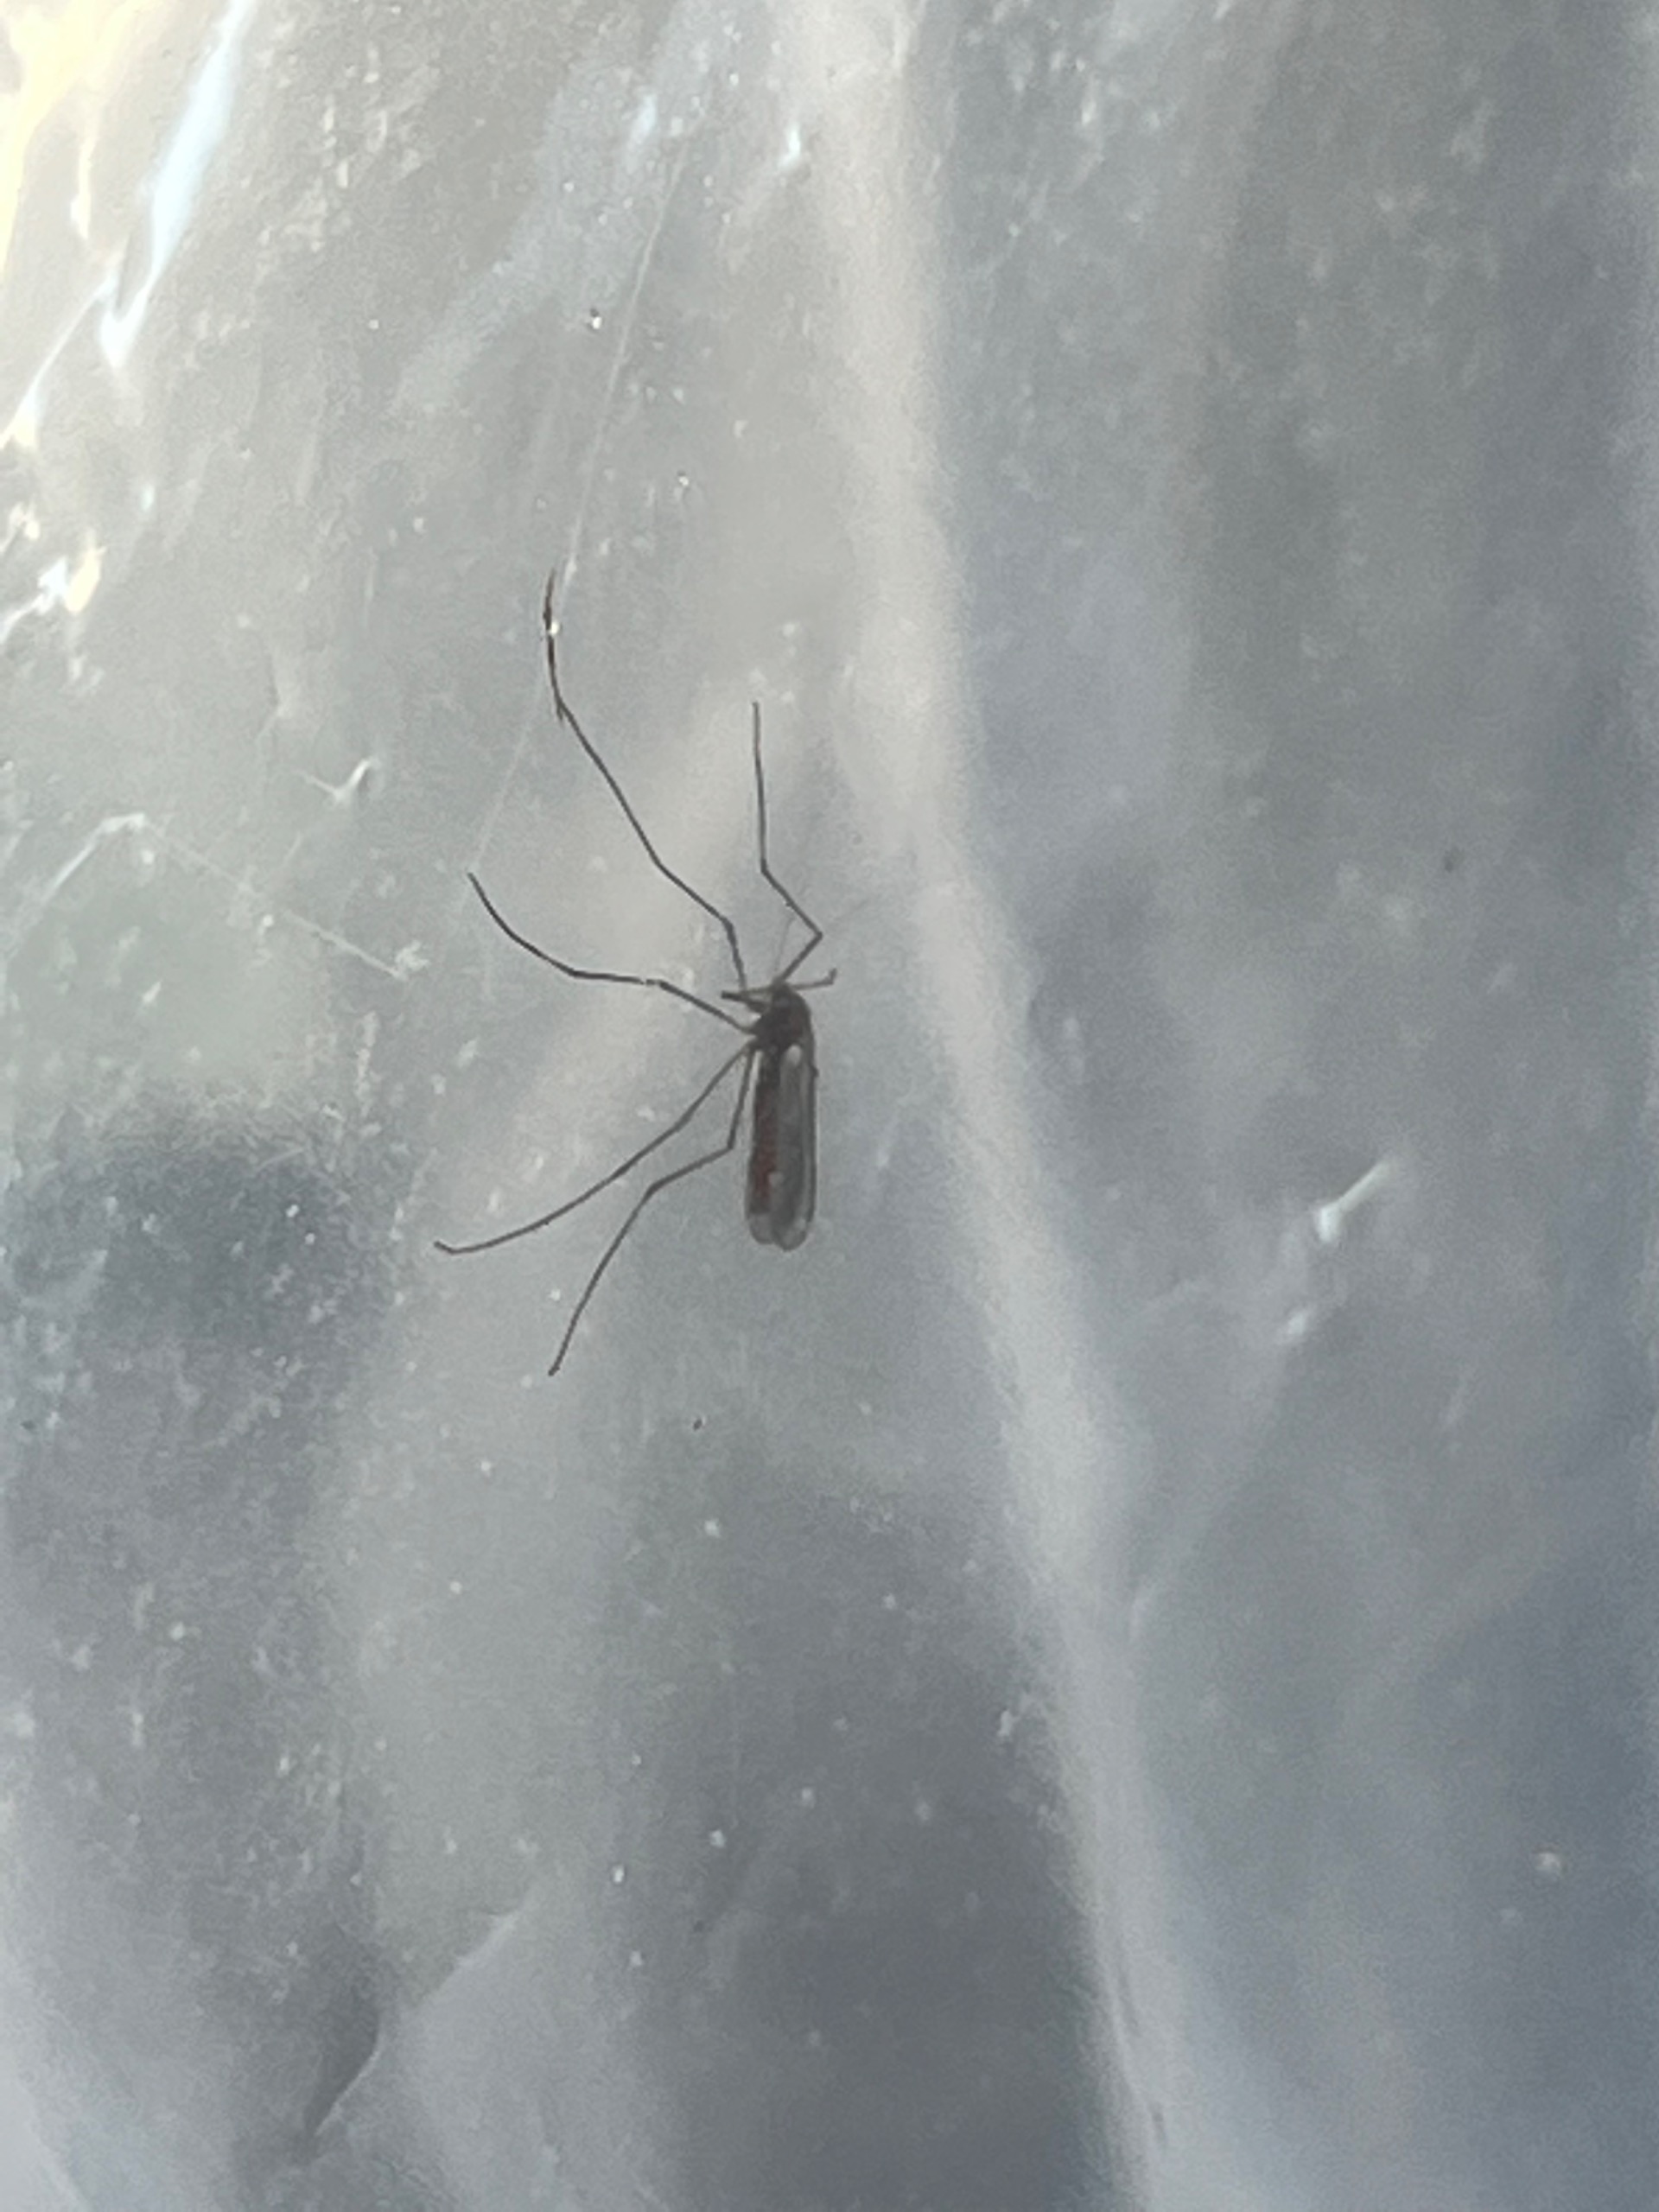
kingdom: Animalia
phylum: Arthropoda
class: Insecta
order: Diptera
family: Cecidomyiidae
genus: Planetella
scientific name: Planetella gallarum
